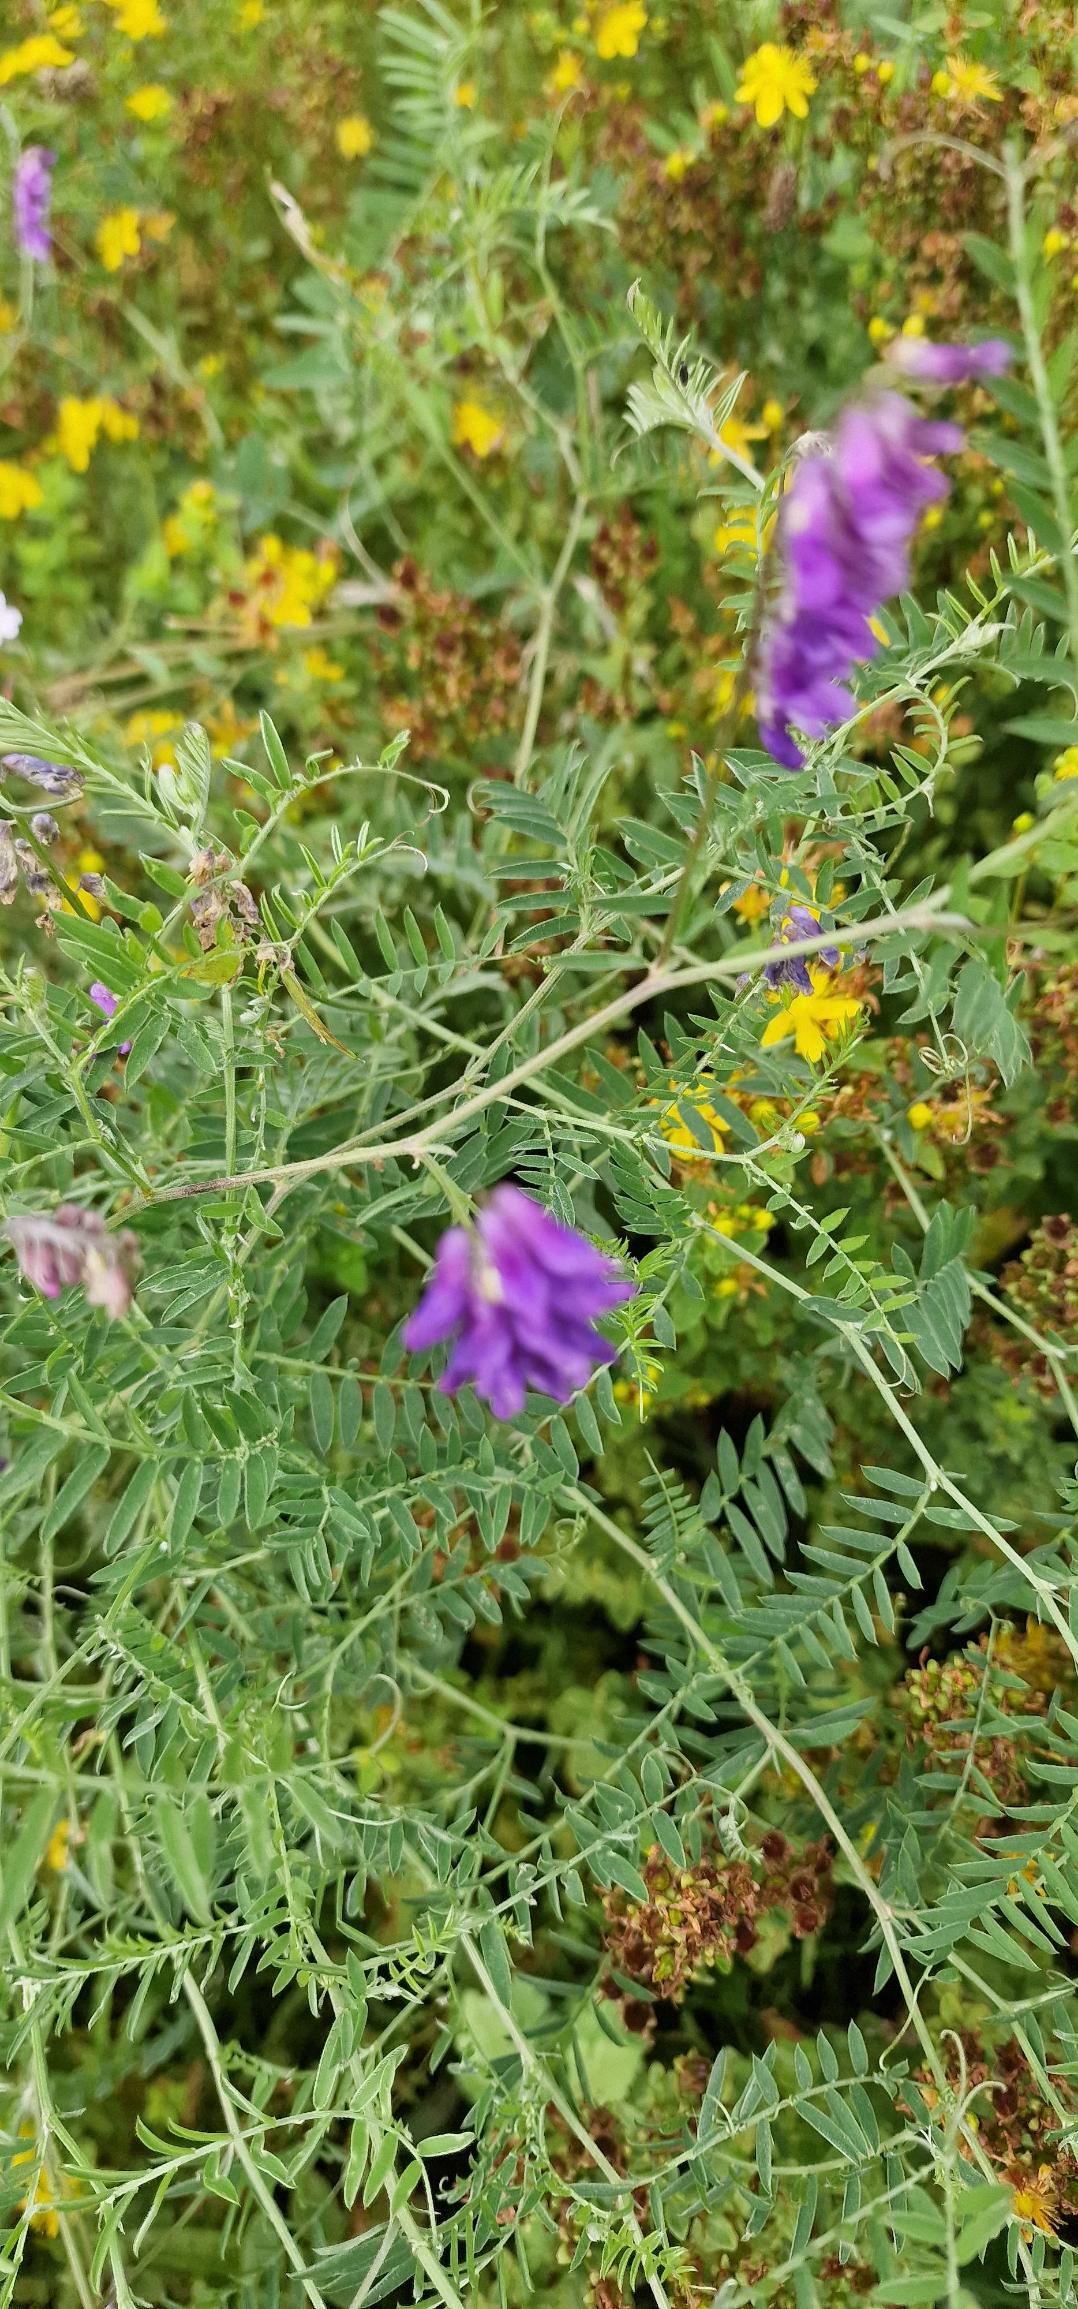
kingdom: Plantae
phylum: Tracheophyta
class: Magnoliopsida
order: Fabales
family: Fabaceae
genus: Vicia
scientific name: Vicia cracca
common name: Muse-vikke
